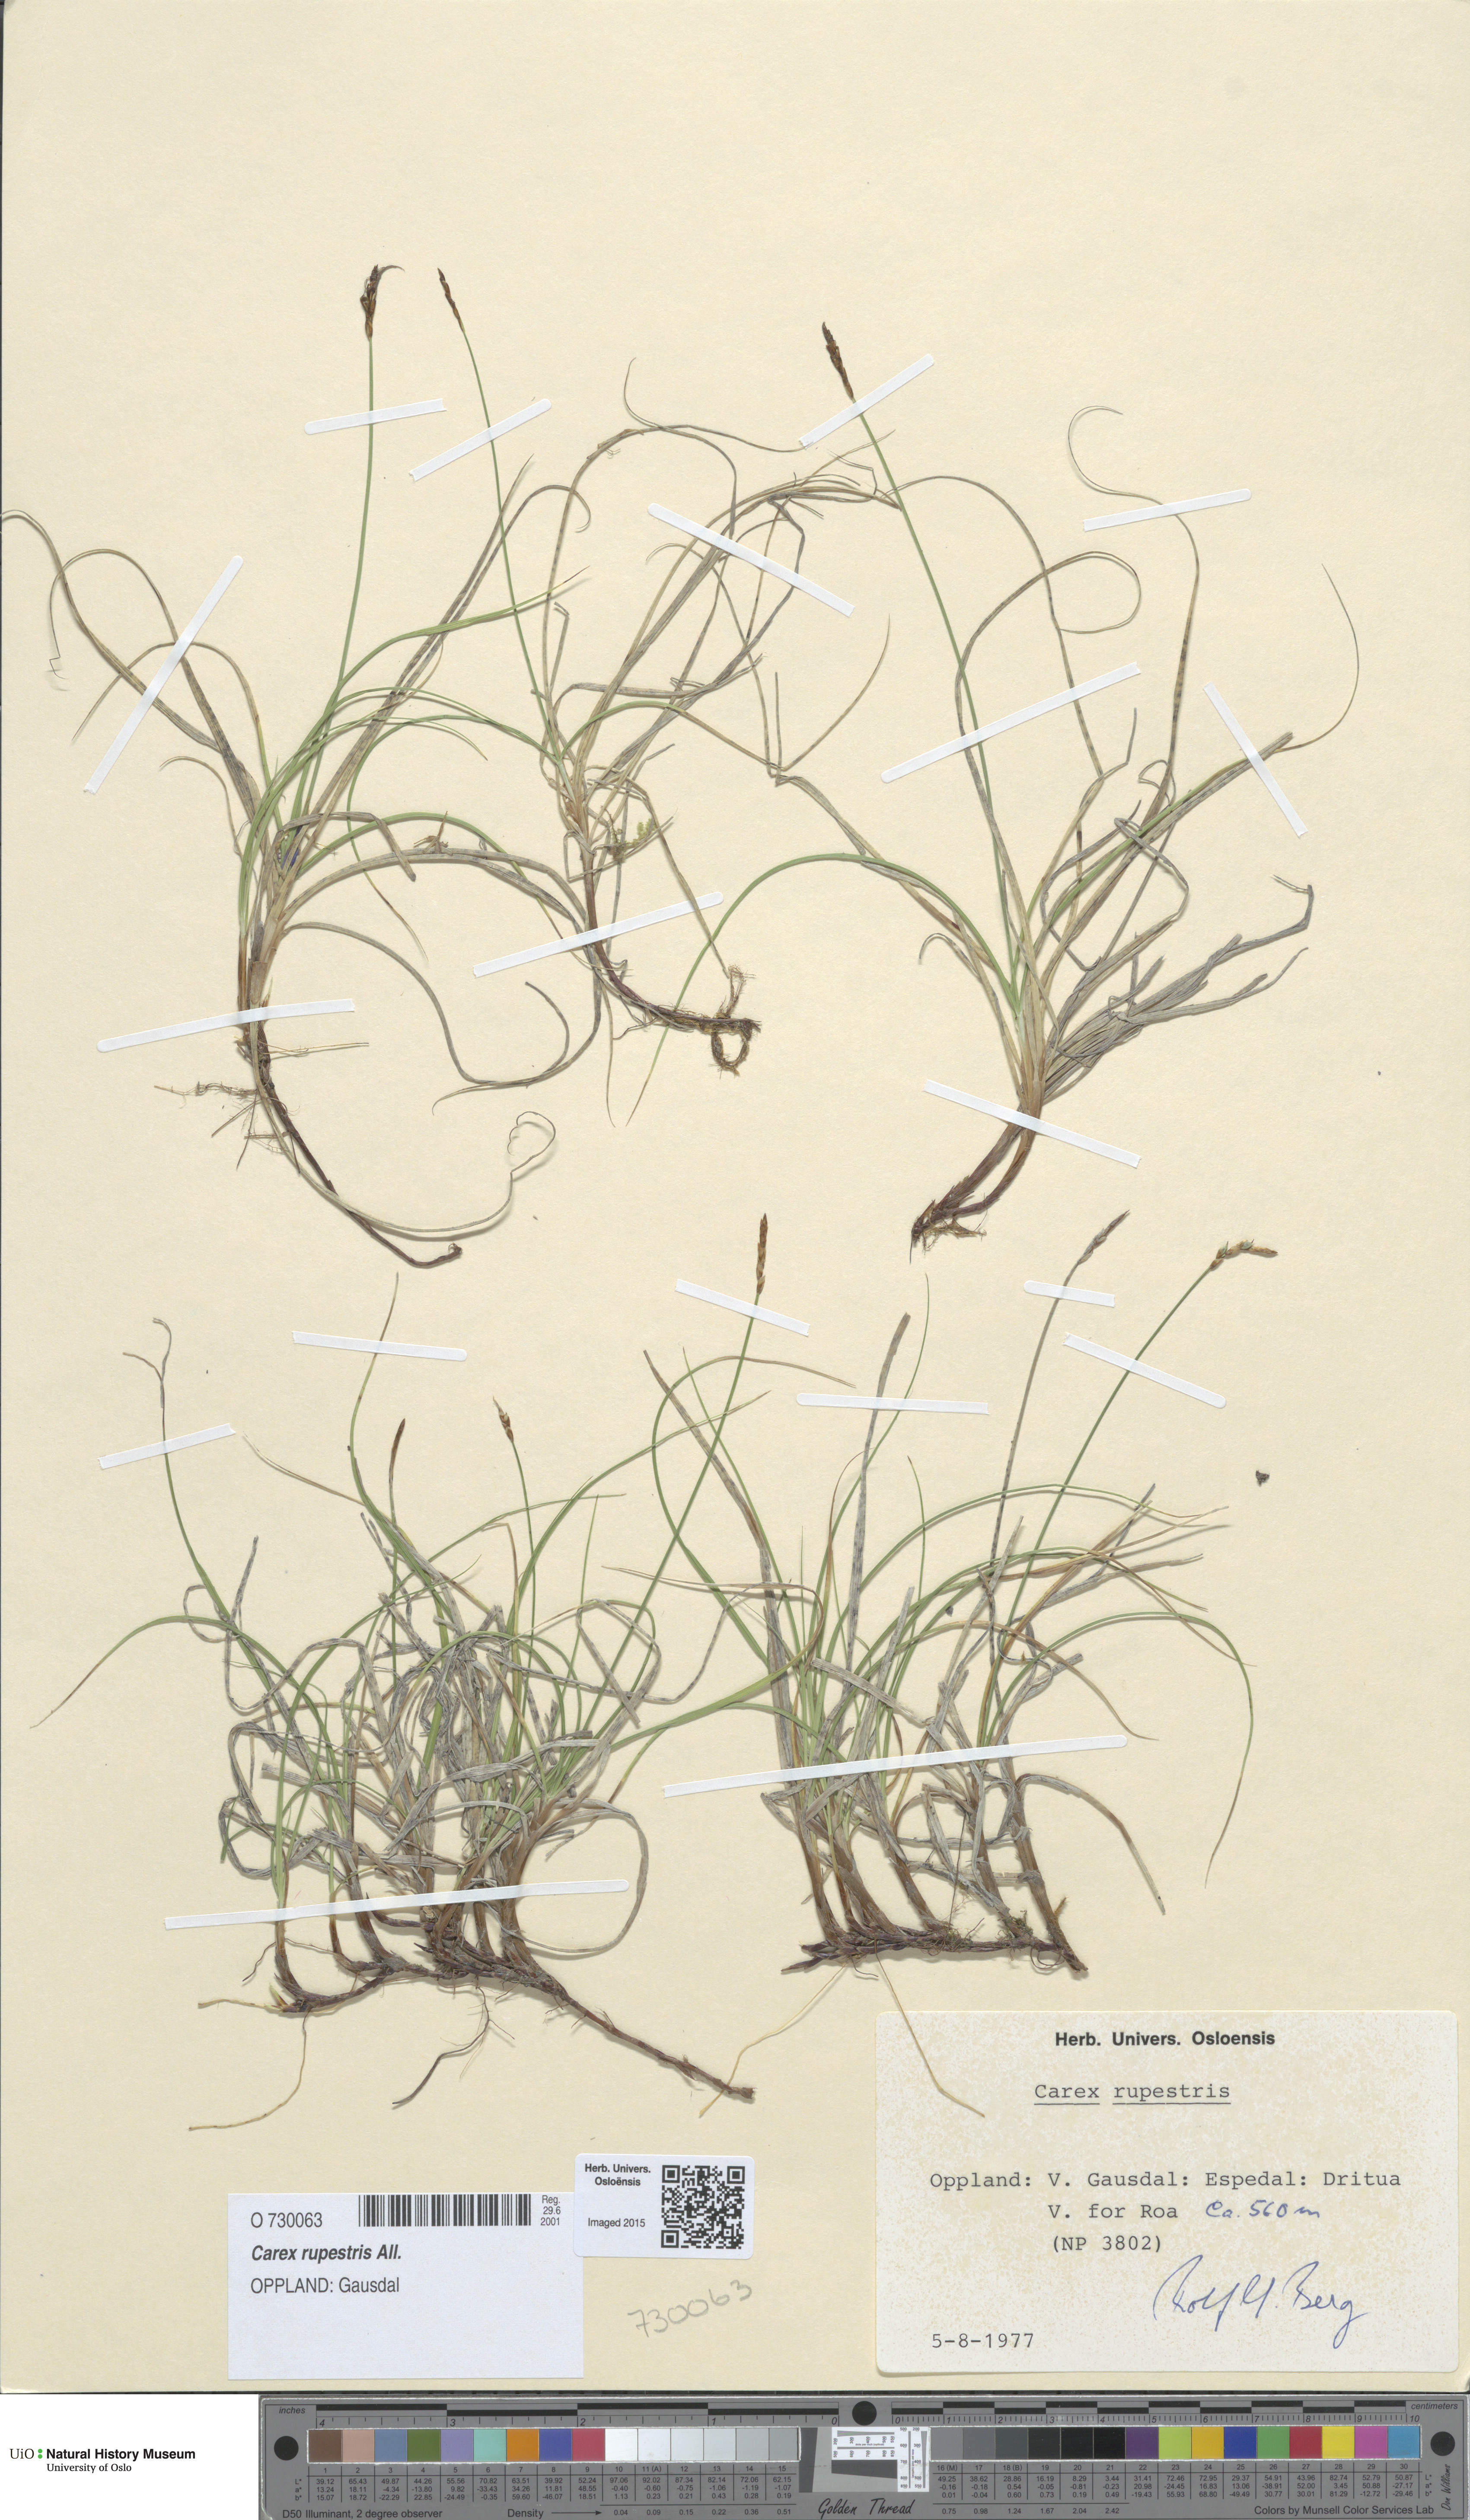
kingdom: Plantae
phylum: Tracheophyta
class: Liliopsida
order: Poales
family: Cyperaceae
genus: Carex
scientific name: Carex rupestris
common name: Rock sedge
